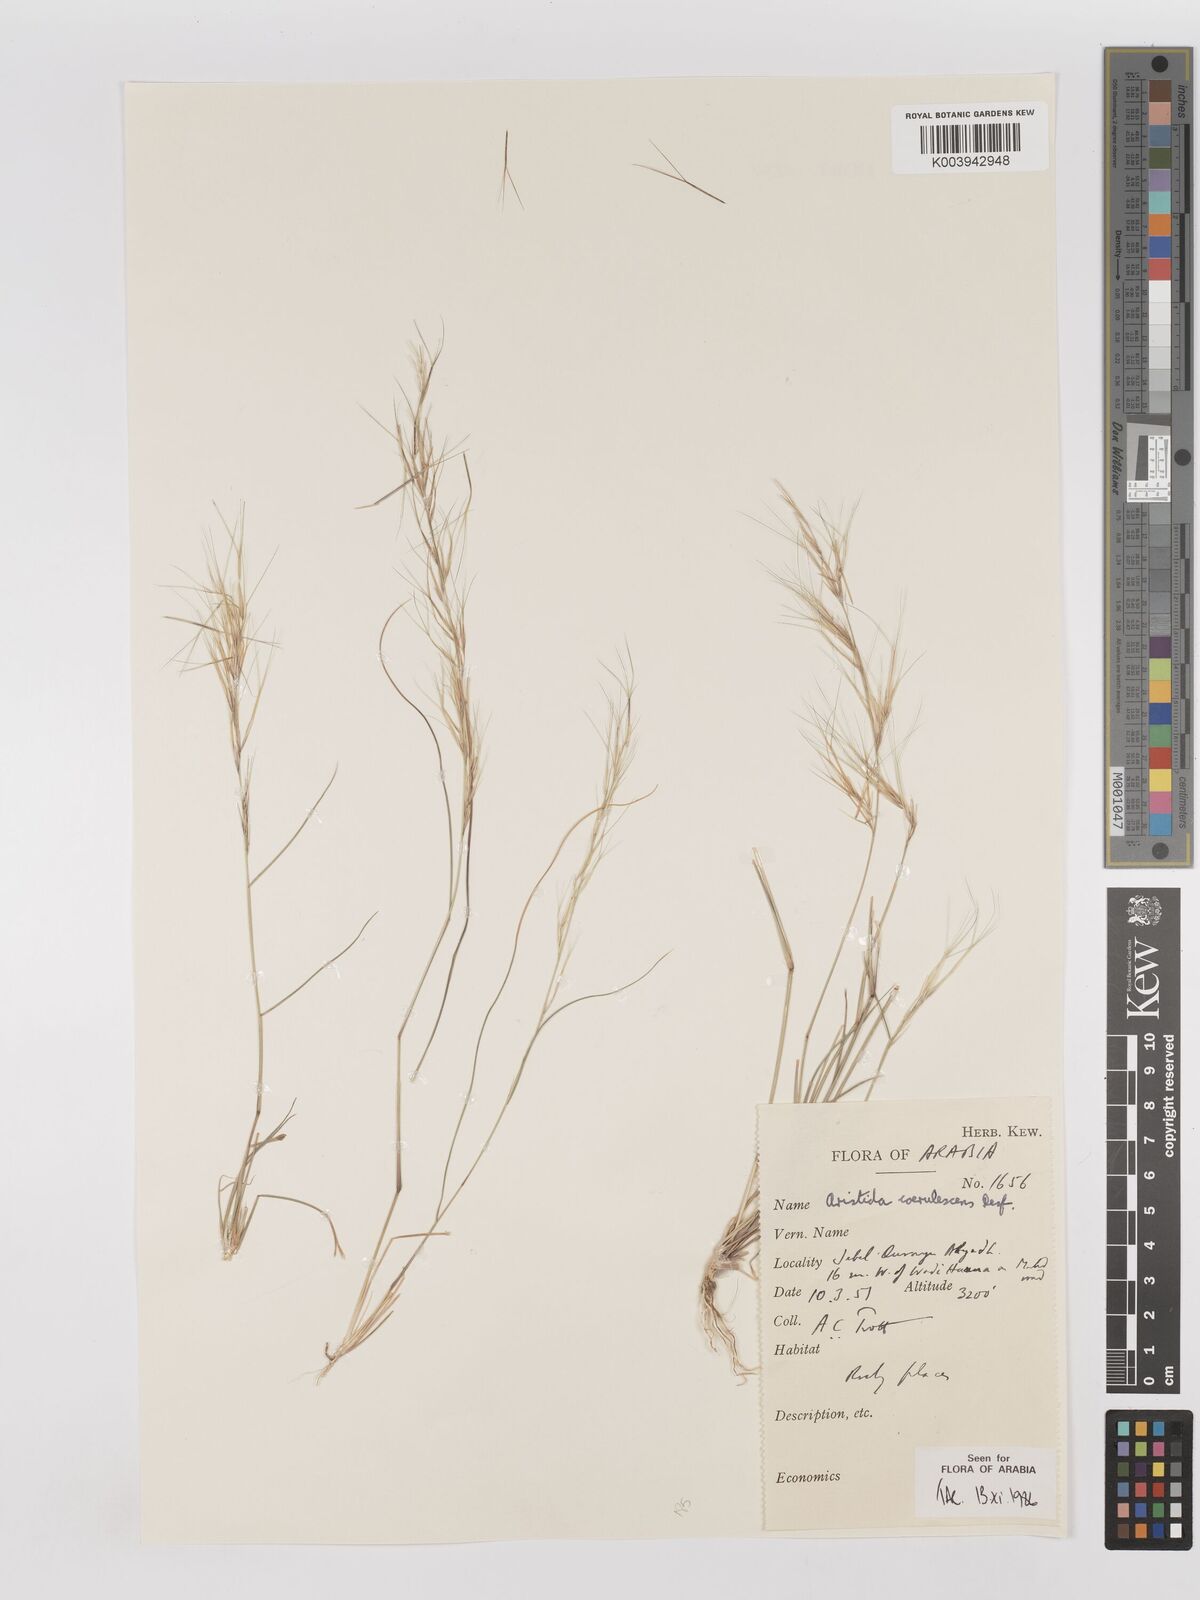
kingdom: Plantae
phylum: Tracheophyta
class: Liliopsida
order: Poales
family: Poaceae
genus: Aristida
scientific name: Aristida adscensionis
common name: Sixweeks threeawn
